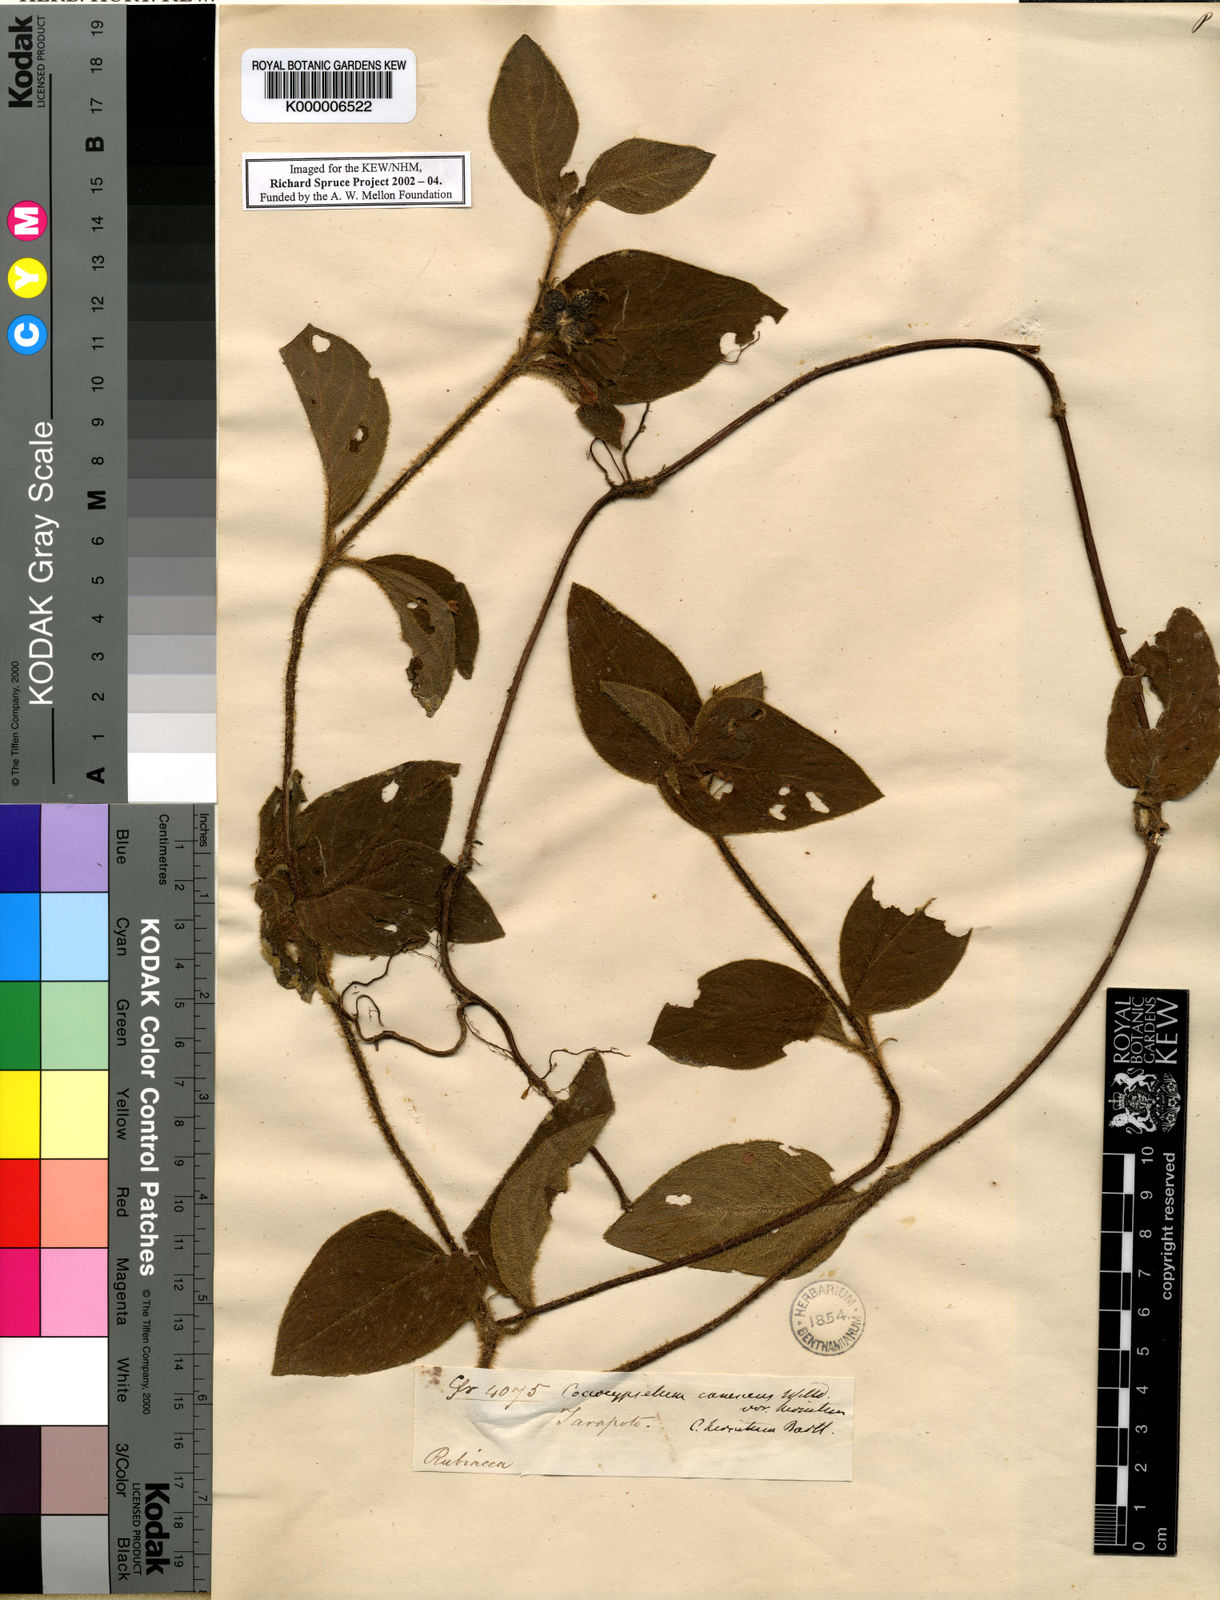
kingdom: Plantae
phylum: Tracheophyta
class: Magnoliopsida
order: Gentianales
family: Rubiaceae
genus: Coccocypselum
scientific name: Coccocypselum hirsutum
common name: Yerba de guava
